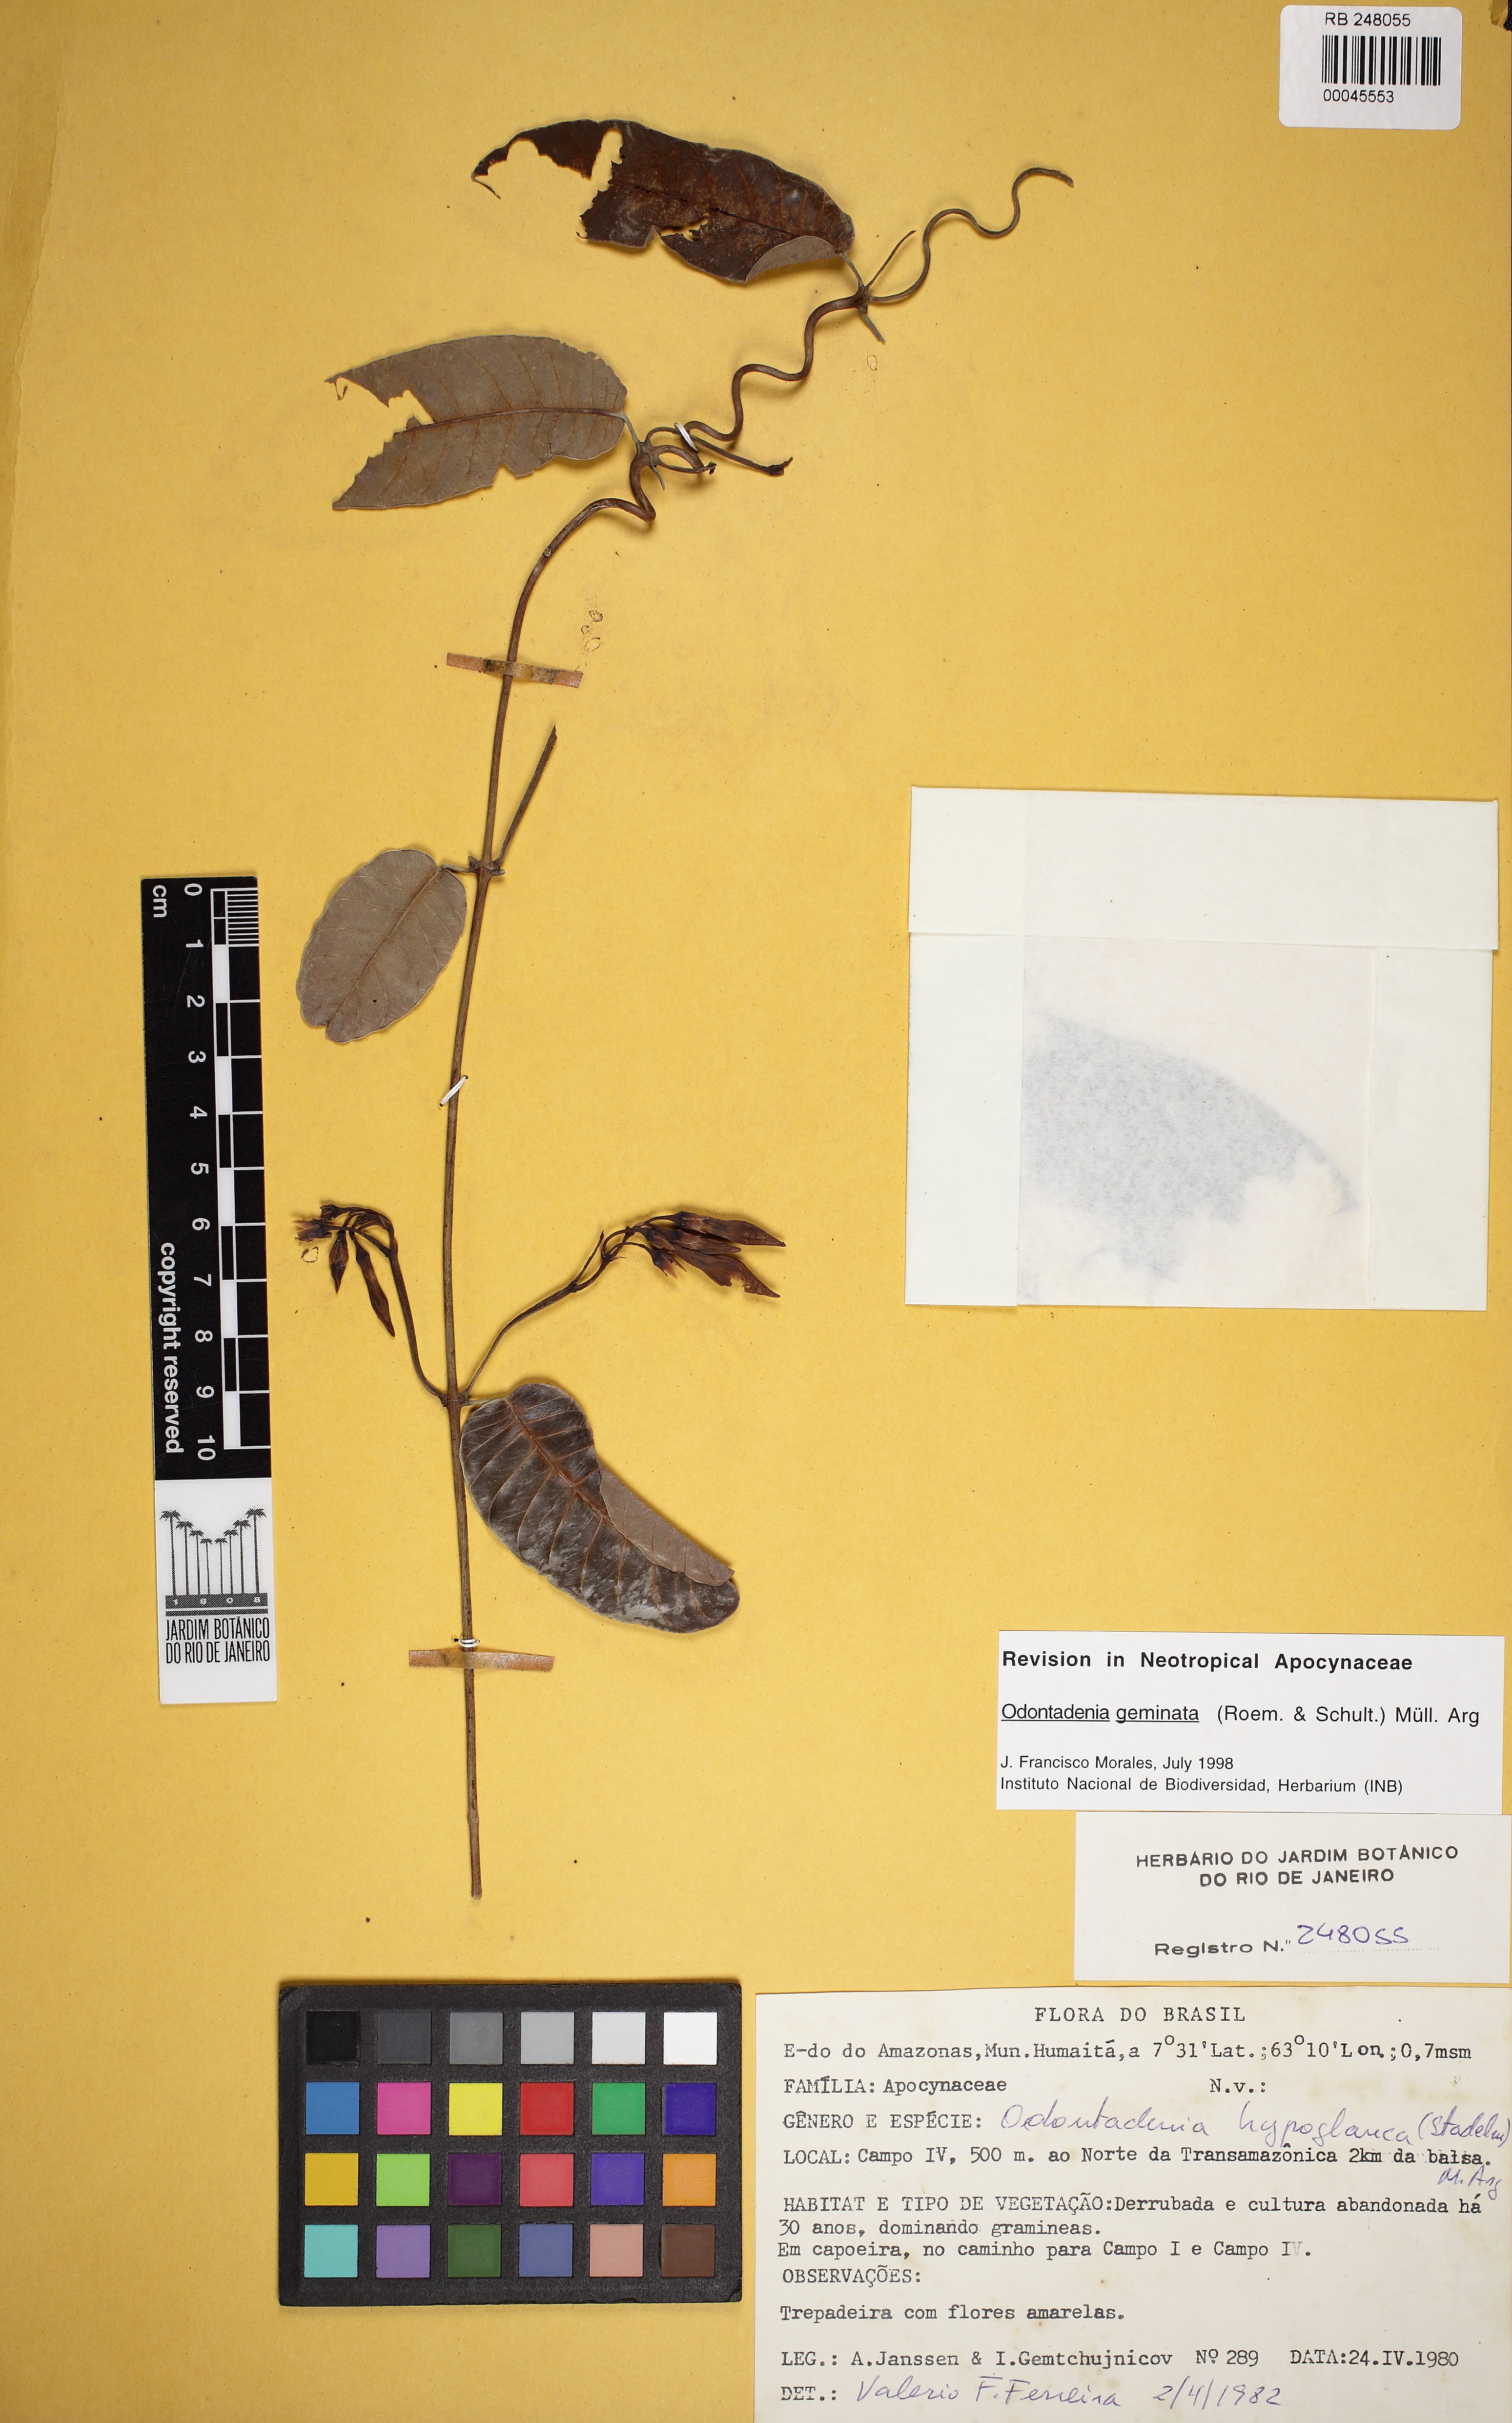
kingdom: Plantae
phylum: Tracheophyta
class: Magnoliopsida
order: Gentianales
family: Apocynaceae
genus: Odontadenia
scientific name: Odontadenia geminata
